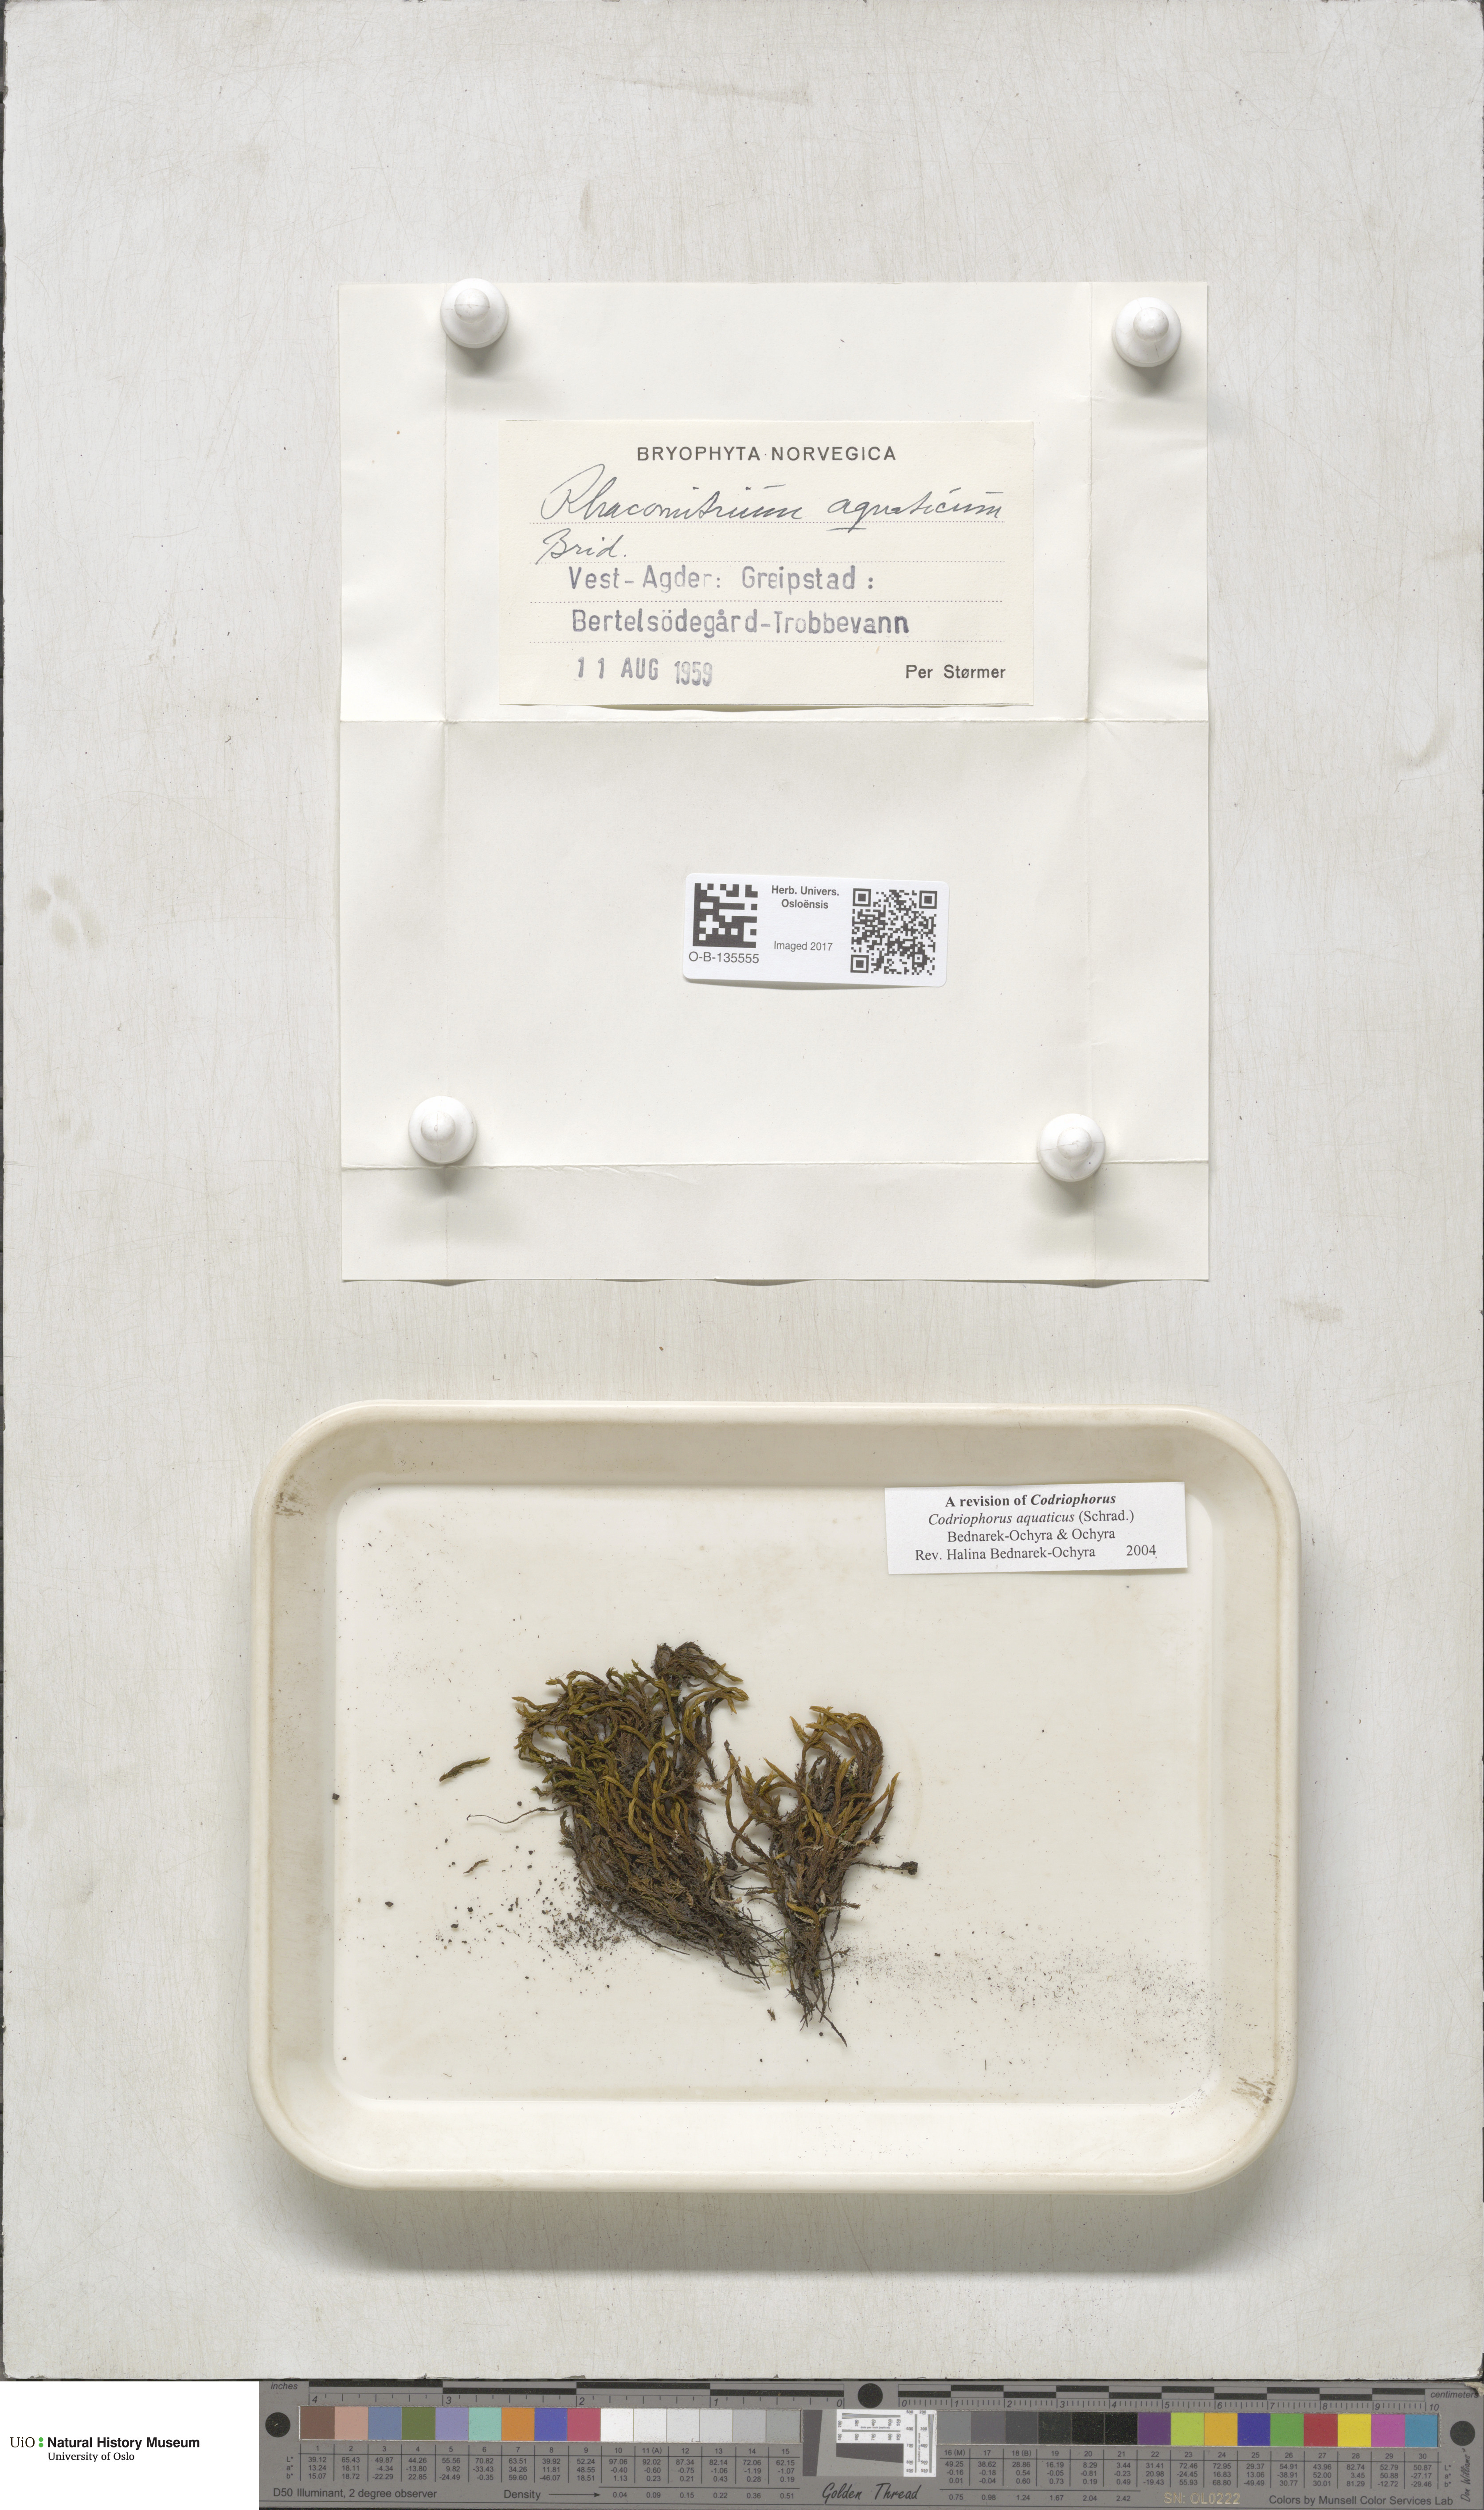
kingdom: Plantae
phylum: Bryophyta
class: Bryopsida
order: Grimmiales
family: Grimmiaceae
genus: Codriophorus
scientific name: Codriophorus aquaticus
